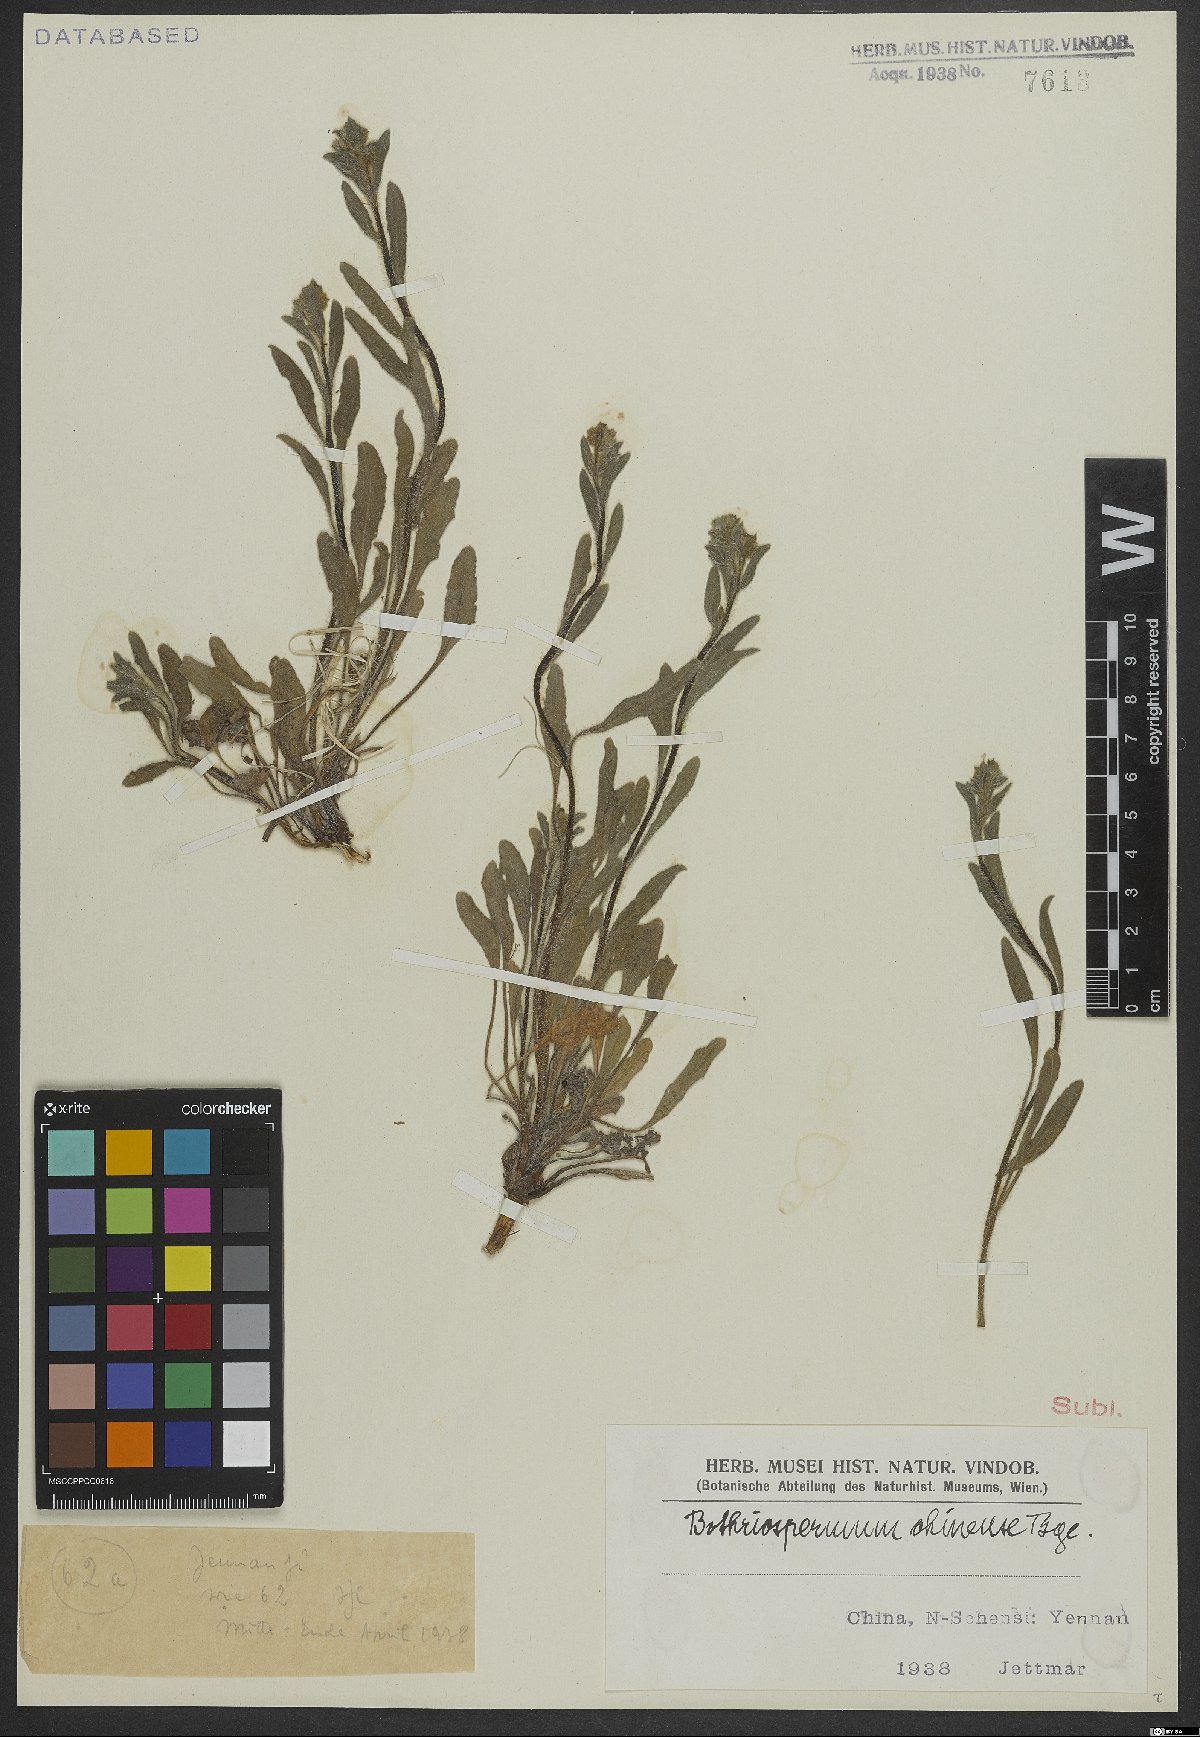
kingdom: Plantae
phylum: Tracheophyta
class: Magnoliopsida
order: Boraginales
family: Boraginaceae
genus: Bothriospermum
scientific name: Bothriospermum chinense
